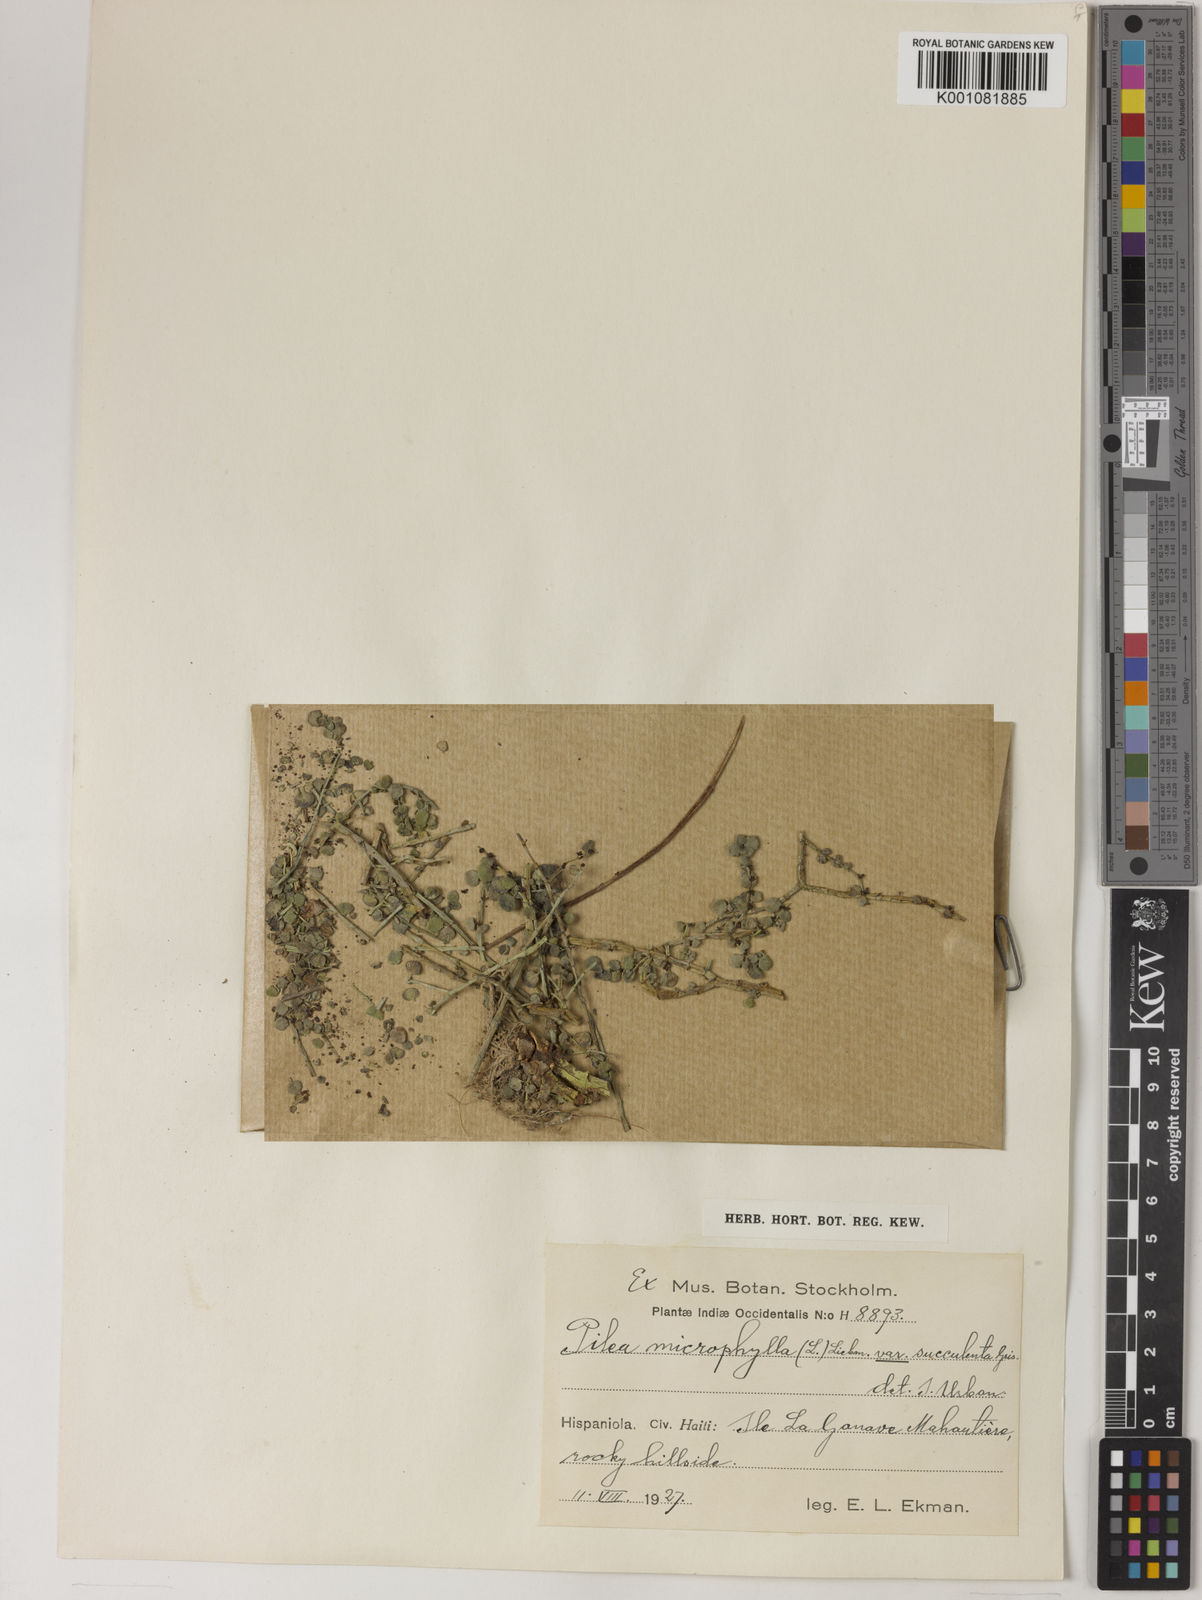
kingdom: Plantae
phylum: Tracheophyta
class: Magnoliopsida
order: Rosales
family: Urticaceae
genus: Pilea
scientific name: Pilea microphylla
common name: Artillery-plant
